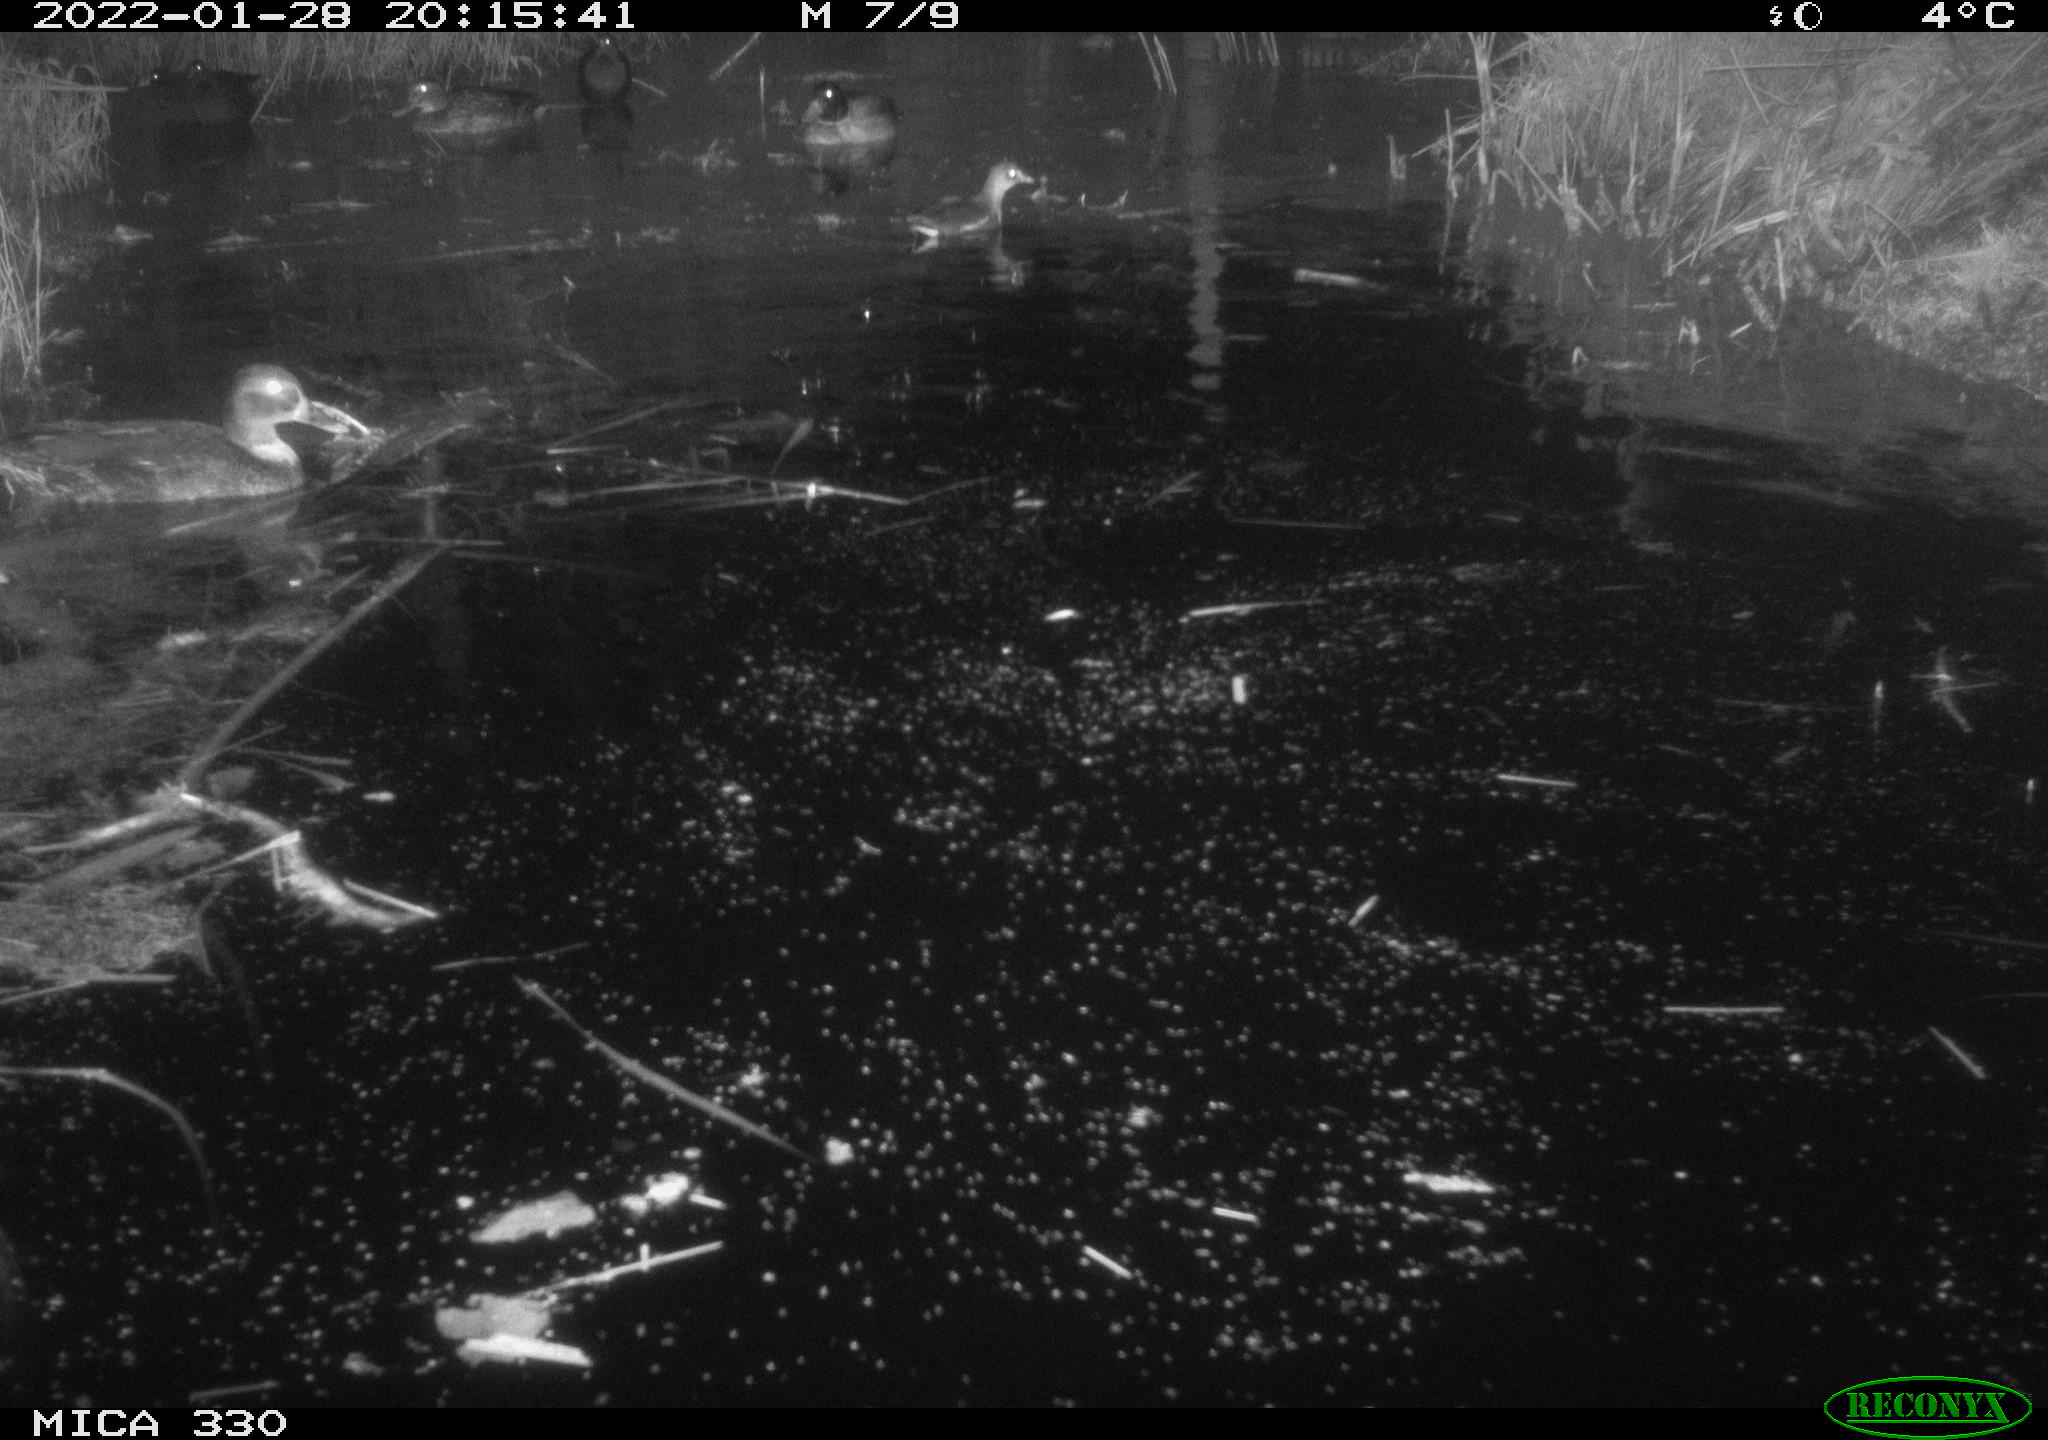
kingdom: Animalia
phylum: Chordata
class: Aves
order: Gruiformes
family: Rallidae
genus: Gallinula
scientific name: Gallinula chloropus
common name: Common moorhen
